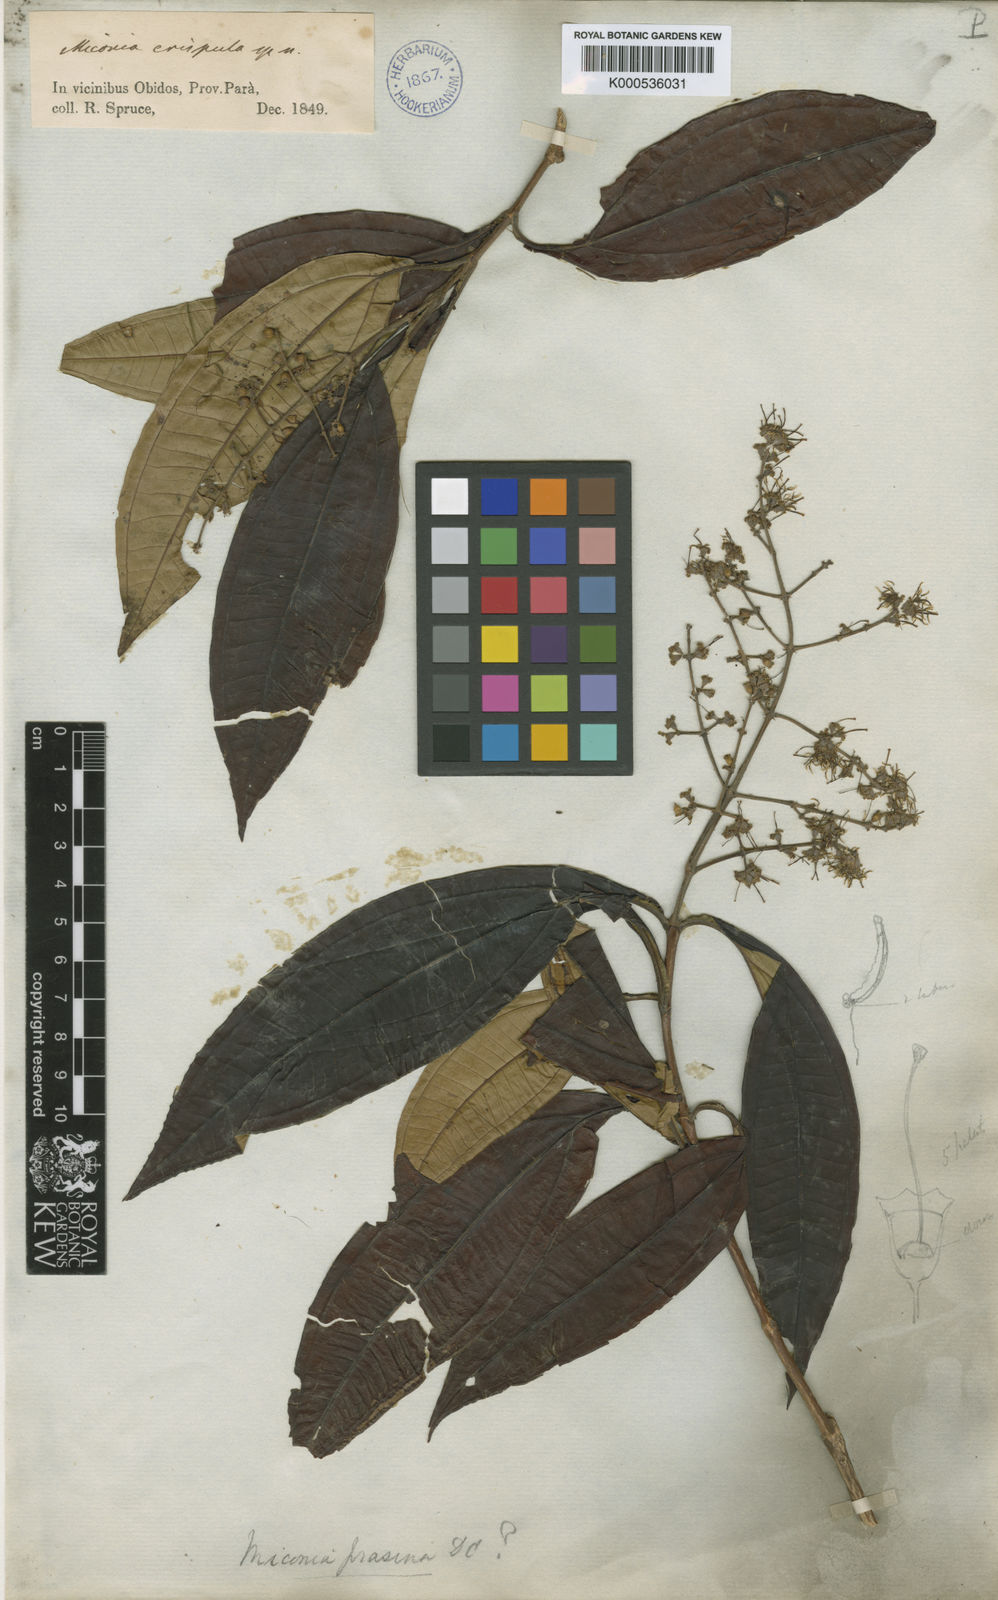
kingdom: Plantae
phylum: Tracheophyta
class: Magnoliopsida
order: Myrtales
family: Melastomataceae
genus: Miconia
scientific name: Miconia prasina
